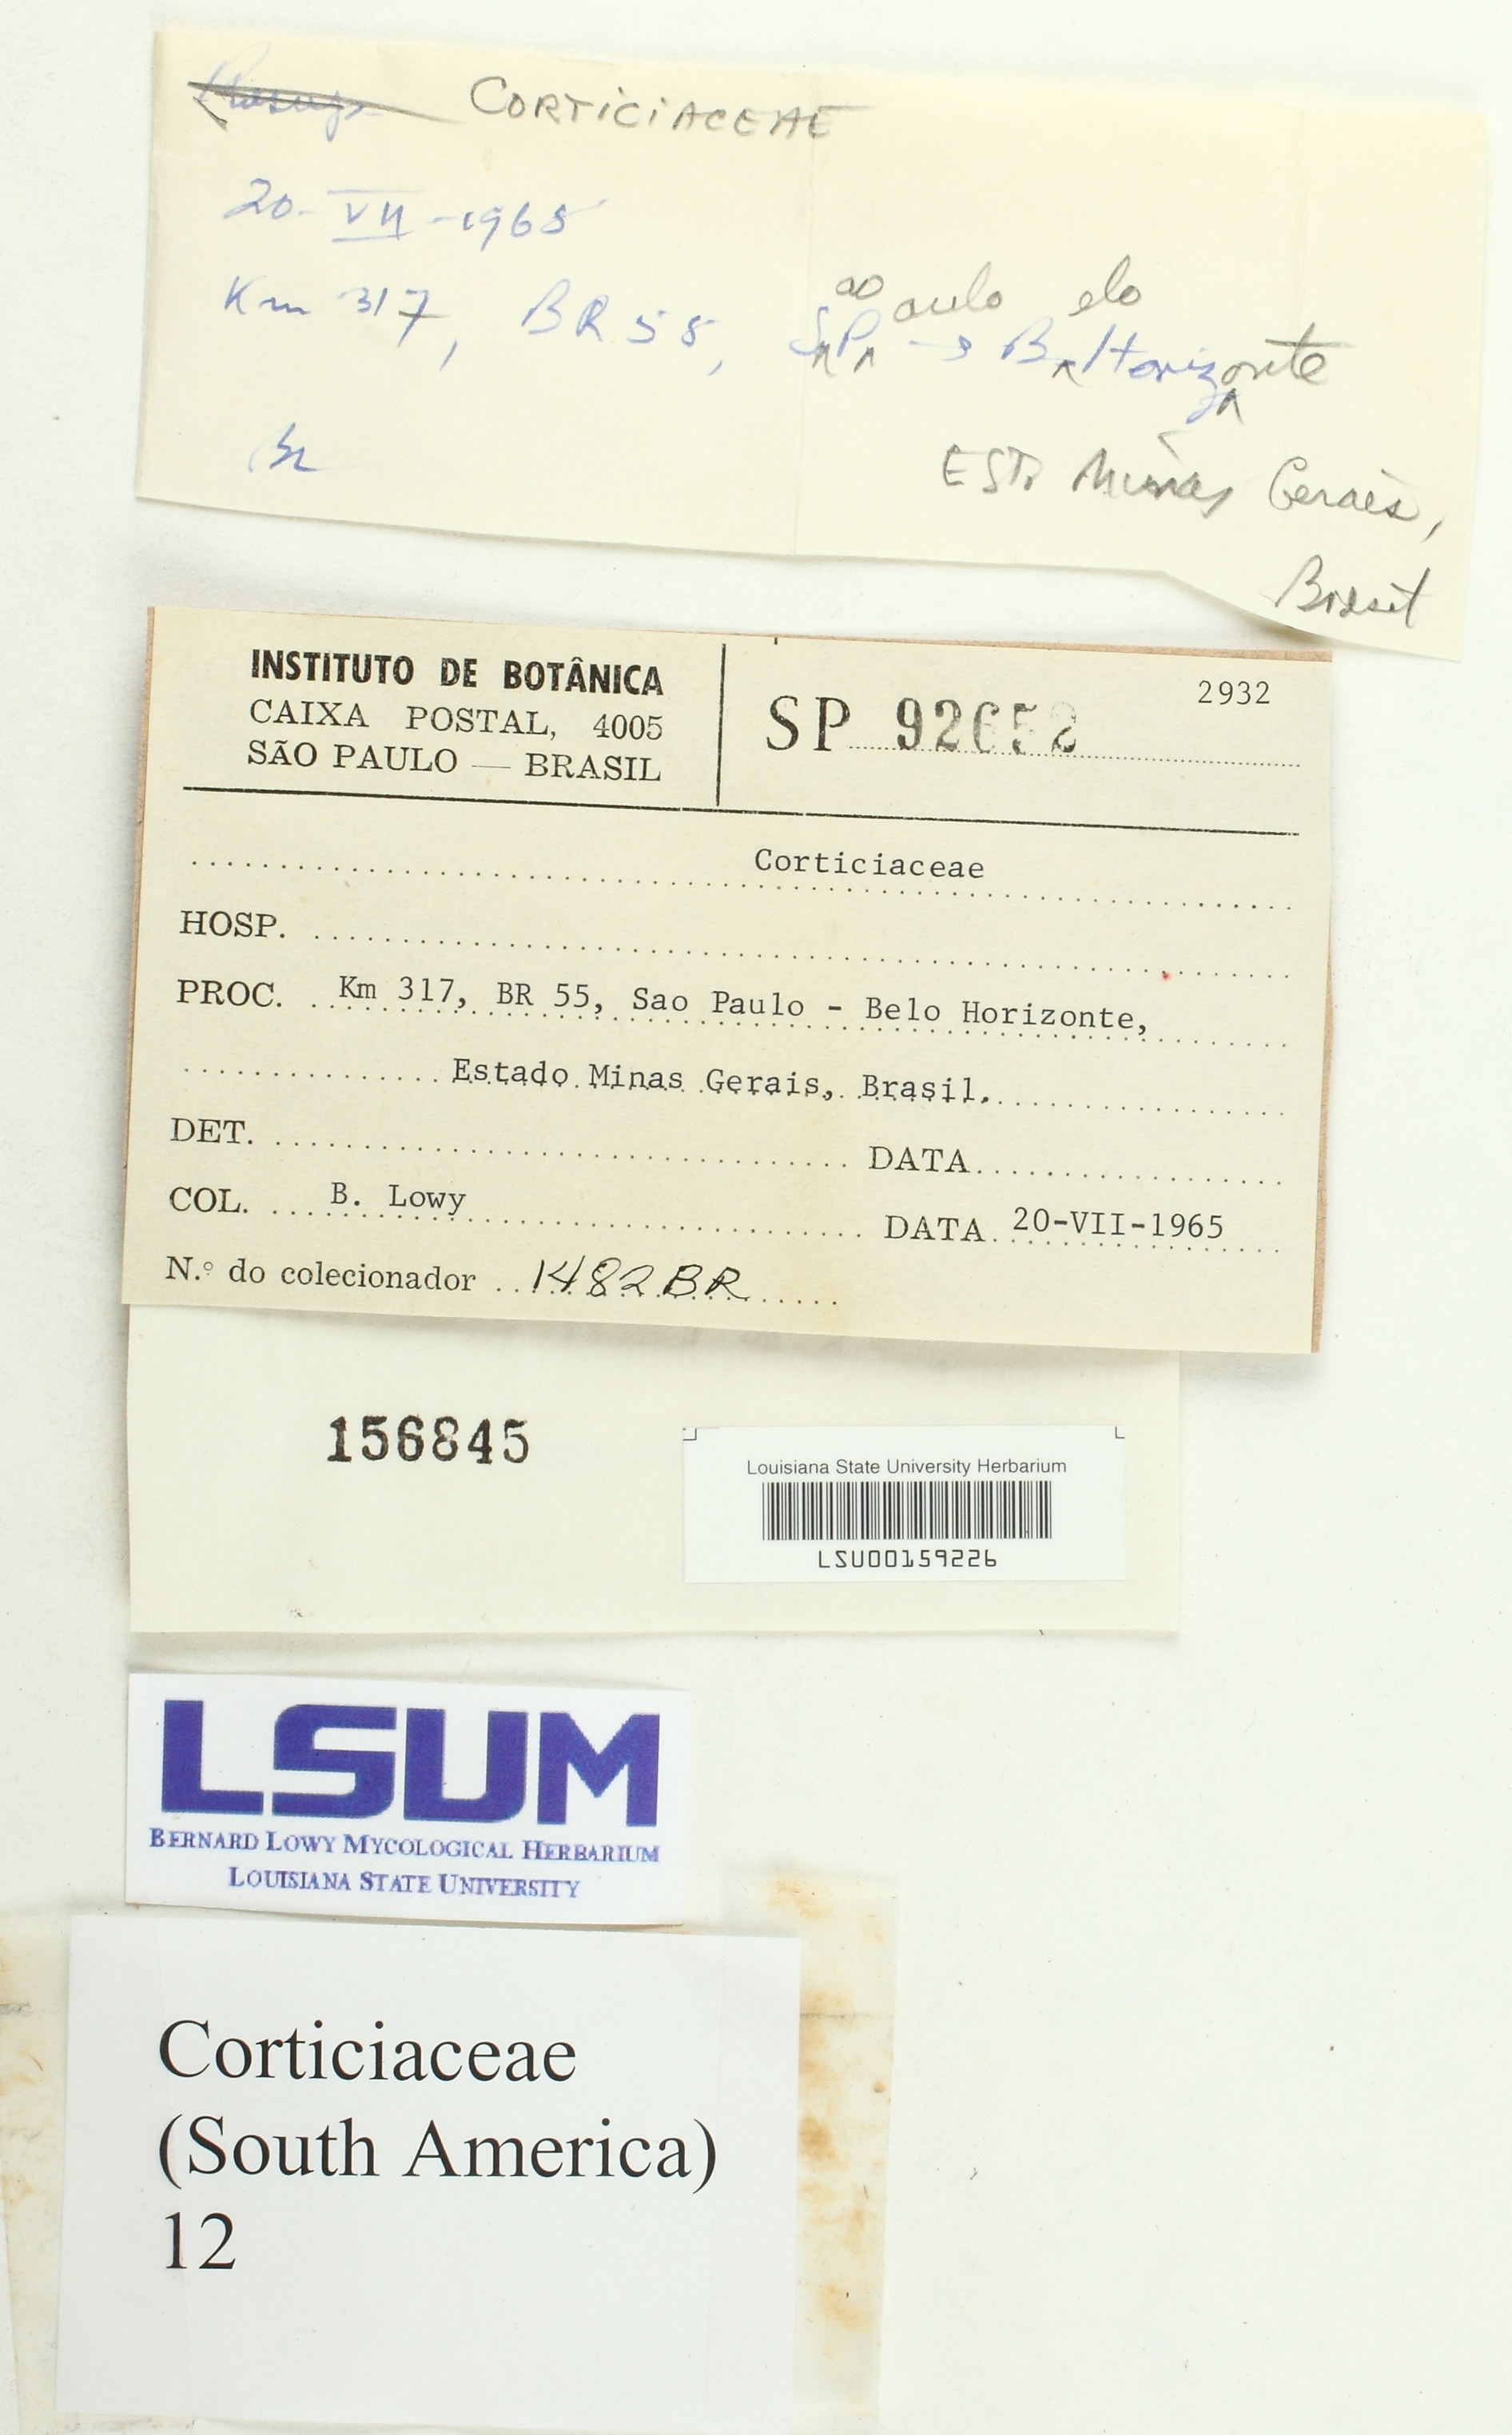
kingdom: Fungi
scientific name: Fungi
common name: Fungi
